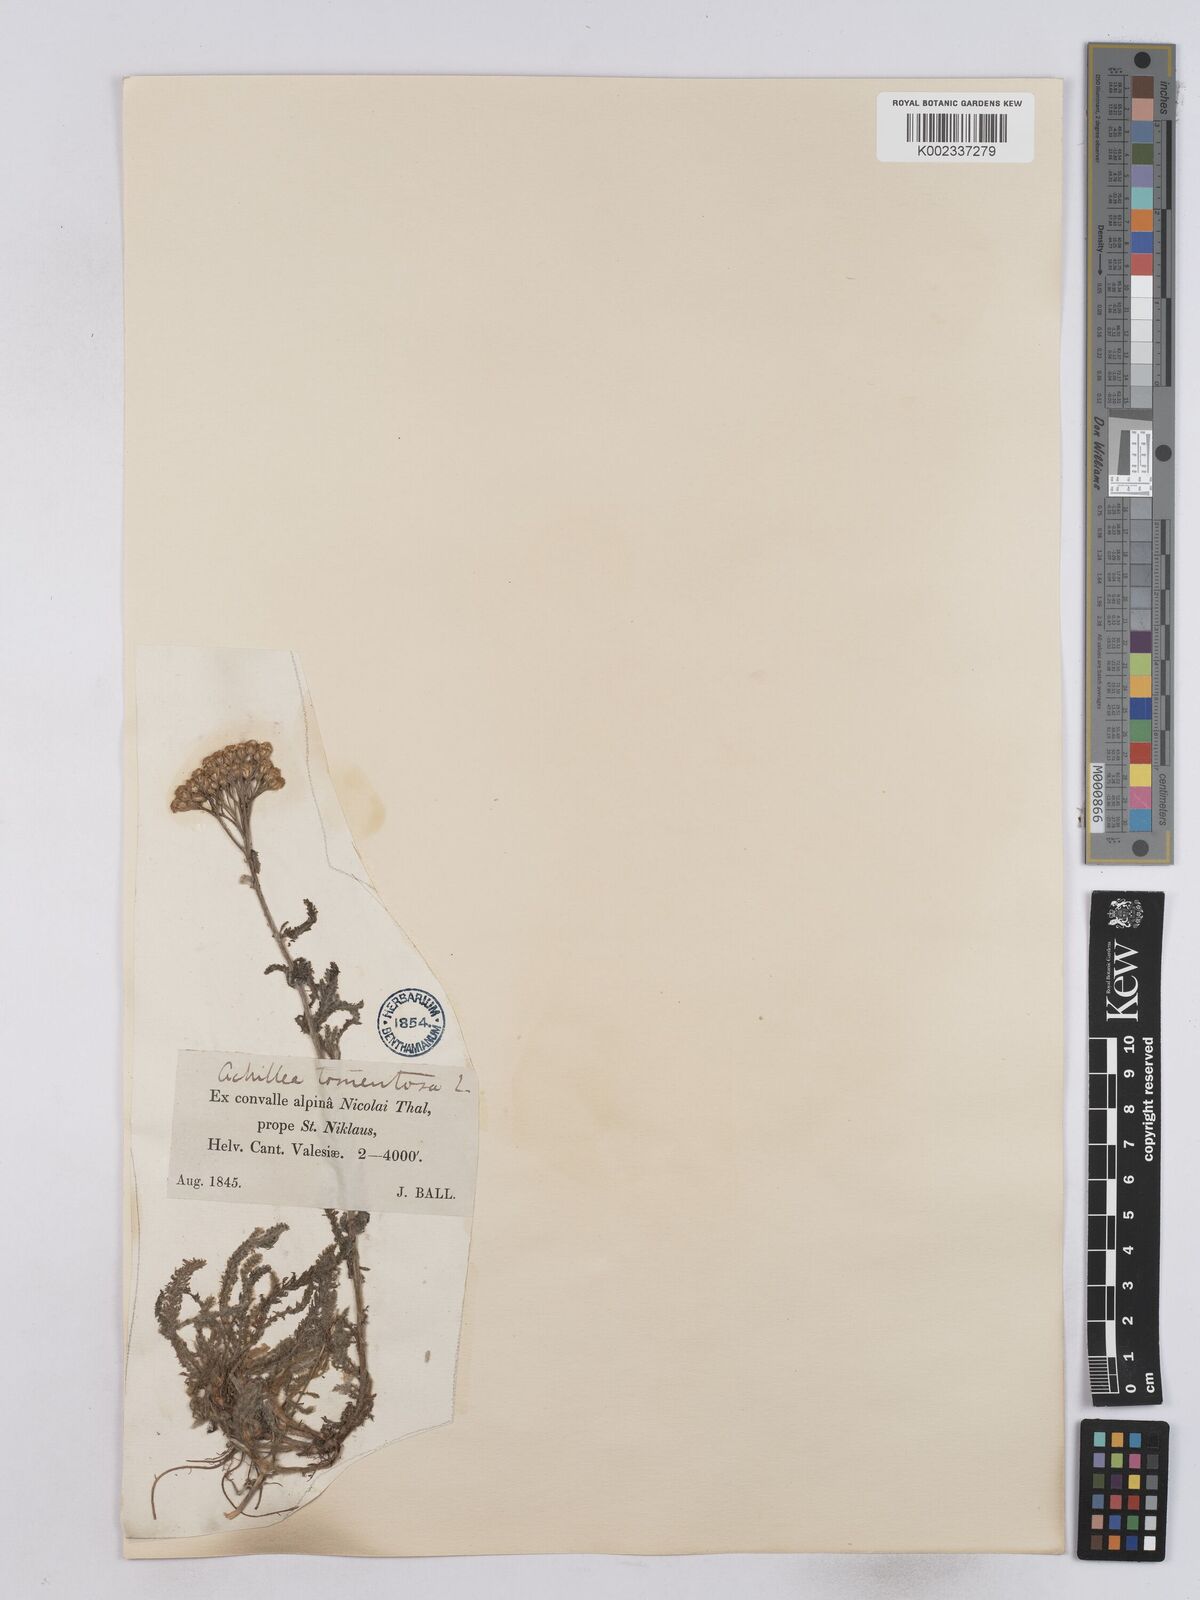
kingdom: Plantae
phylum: Tracheophyta
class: Magnoliopsida
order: Asterales
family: Asteraceae
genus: Achillea
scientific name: Achillea tomentosa
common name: Yellow milfoil
